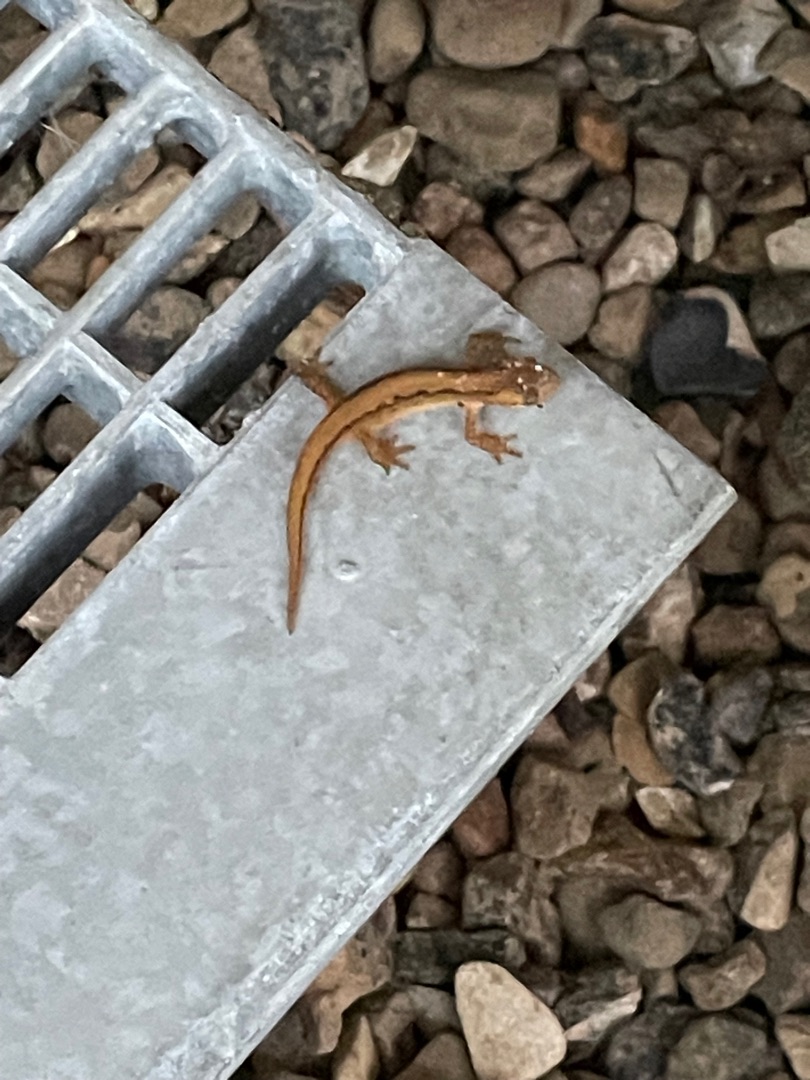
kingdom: Animalia
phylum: Chordata
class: Amphibia
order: Caudata
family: Salamandridae
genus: Lissotriton
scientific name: Lissotriton vulgaris
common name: Lille vandsalamander
